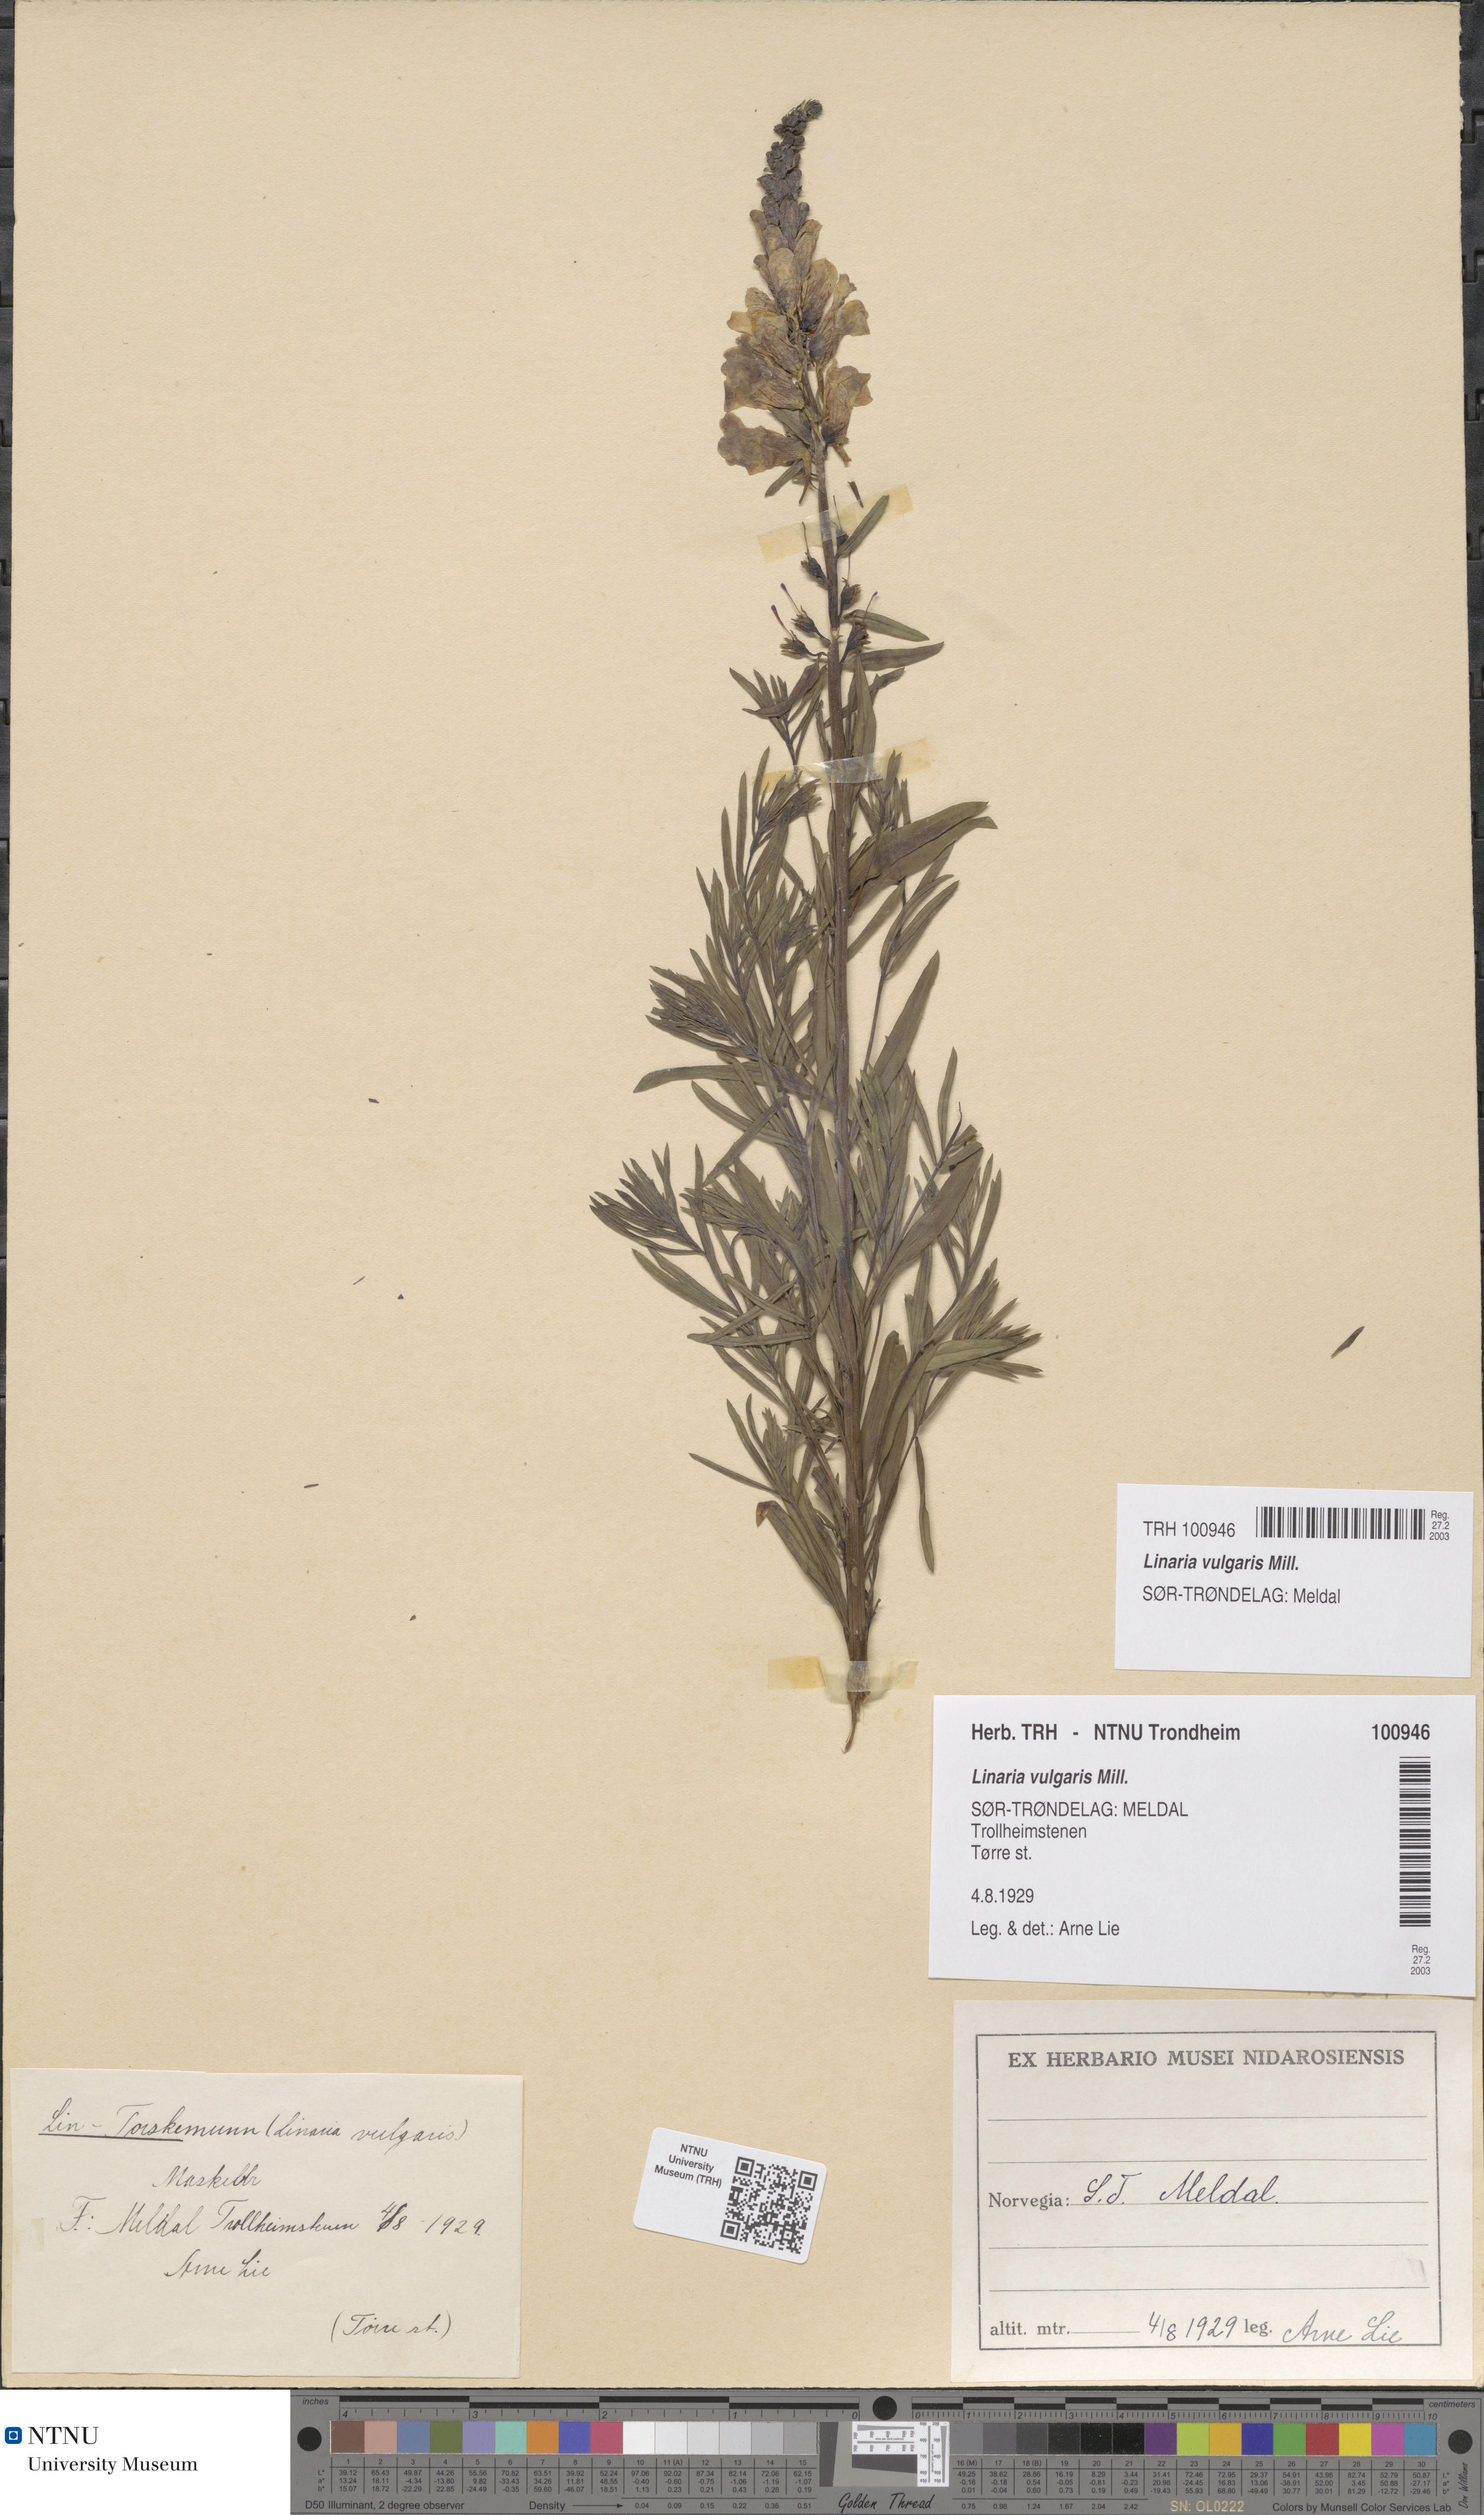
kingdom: Plantae
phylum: Tracheophyta
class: Magnoliopsida
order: Lamiales
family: Plantaginaceae
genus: Linaria
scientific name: Linaria vulgaris
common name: Butter and eggs
